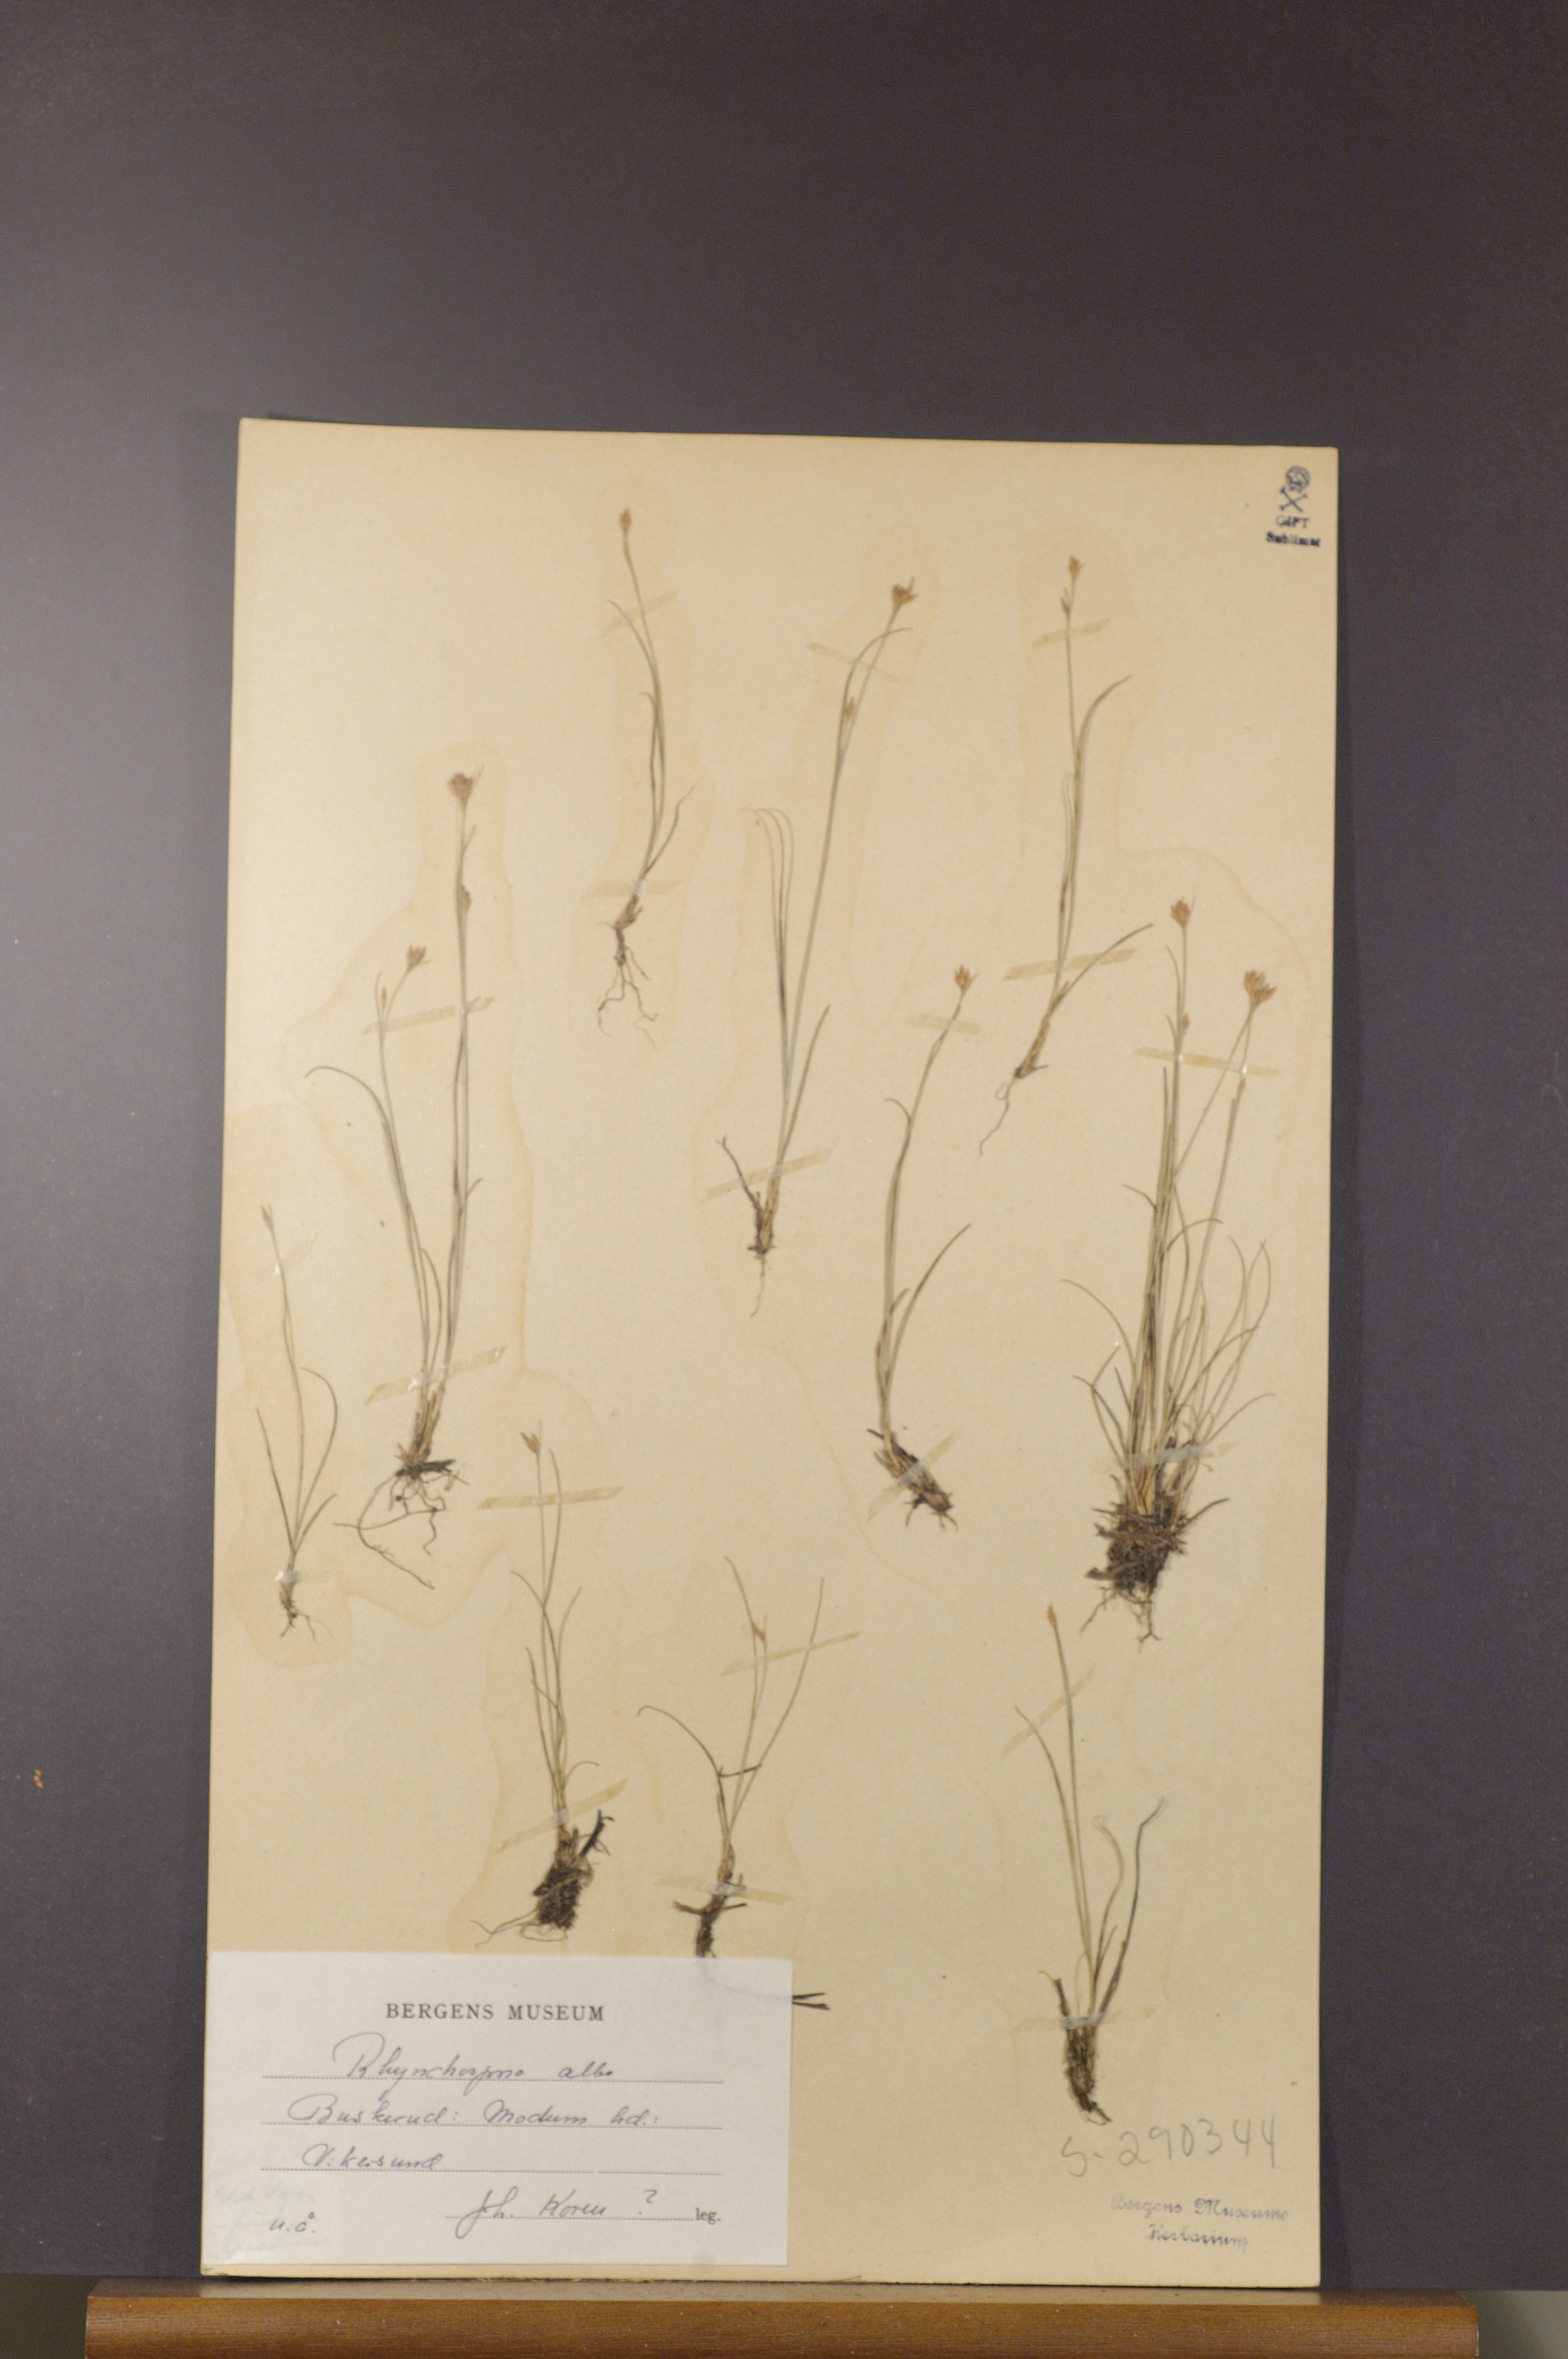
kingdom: Plantae
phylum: Tracheophyta
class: Liliopsida
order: Poales
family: Cyperaceae
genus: Rhynchospora
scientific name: Rhynchospora alba
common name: White beak-sedge
